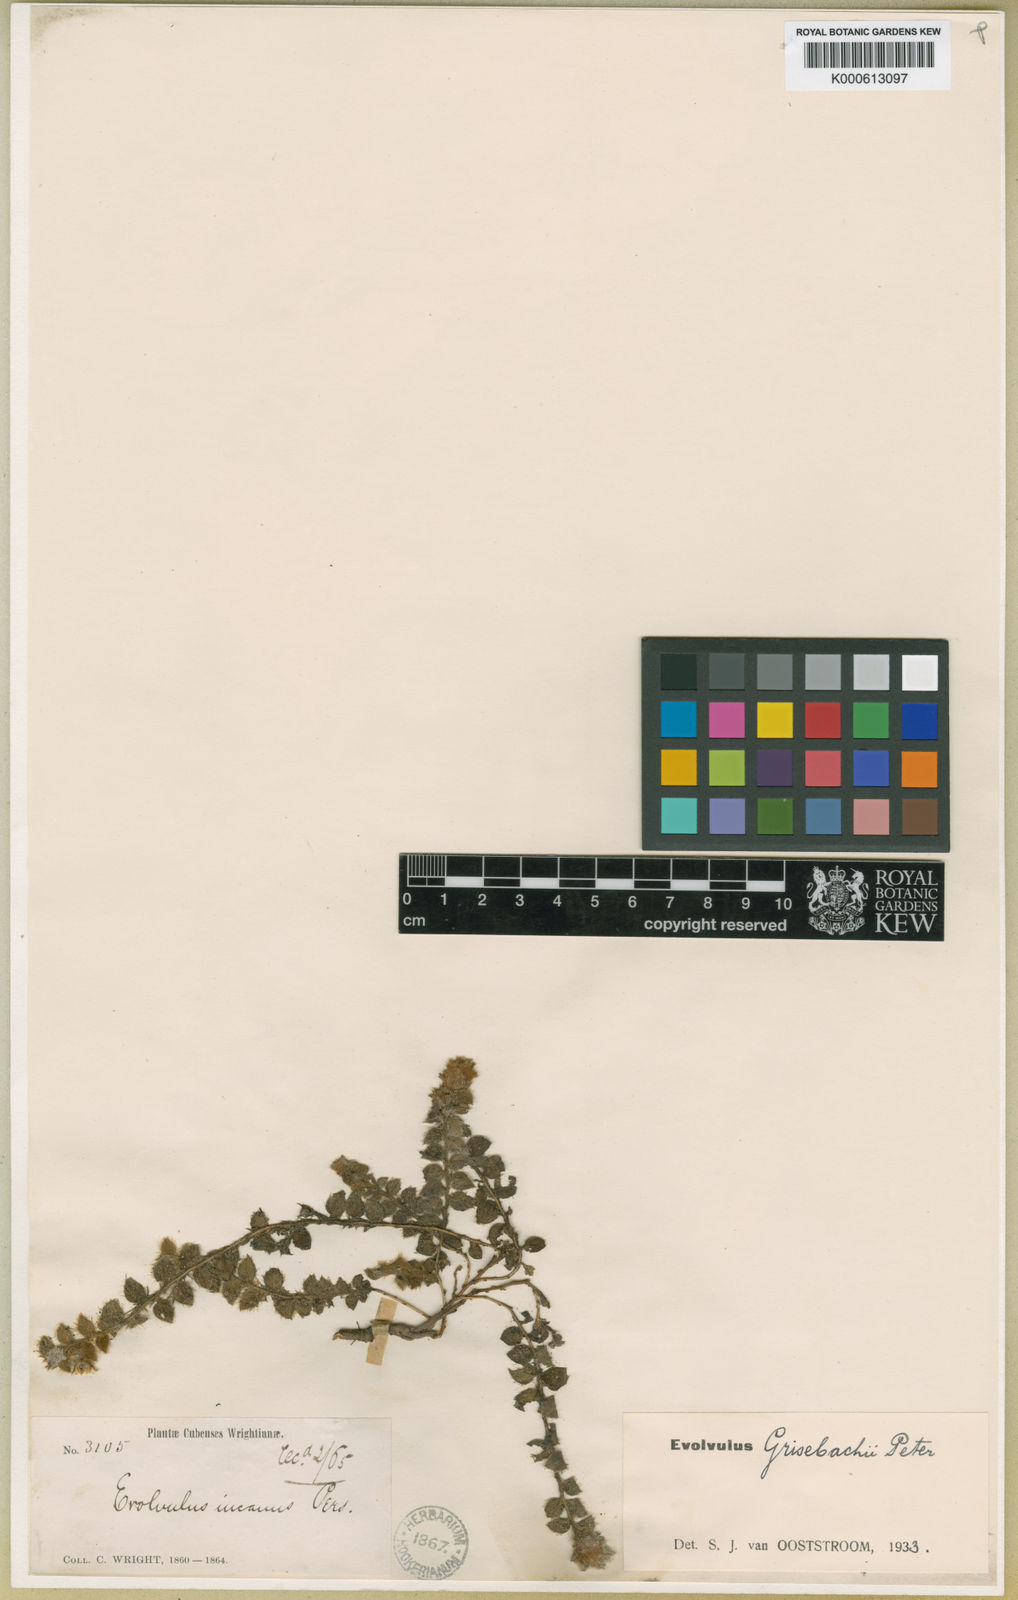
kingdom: Plantae
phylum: Tracheophyta
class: Magnoliopsida
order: Solanales
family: Convolvulaceae
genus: Evolvulus
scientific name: Evolvulus grisebachii
